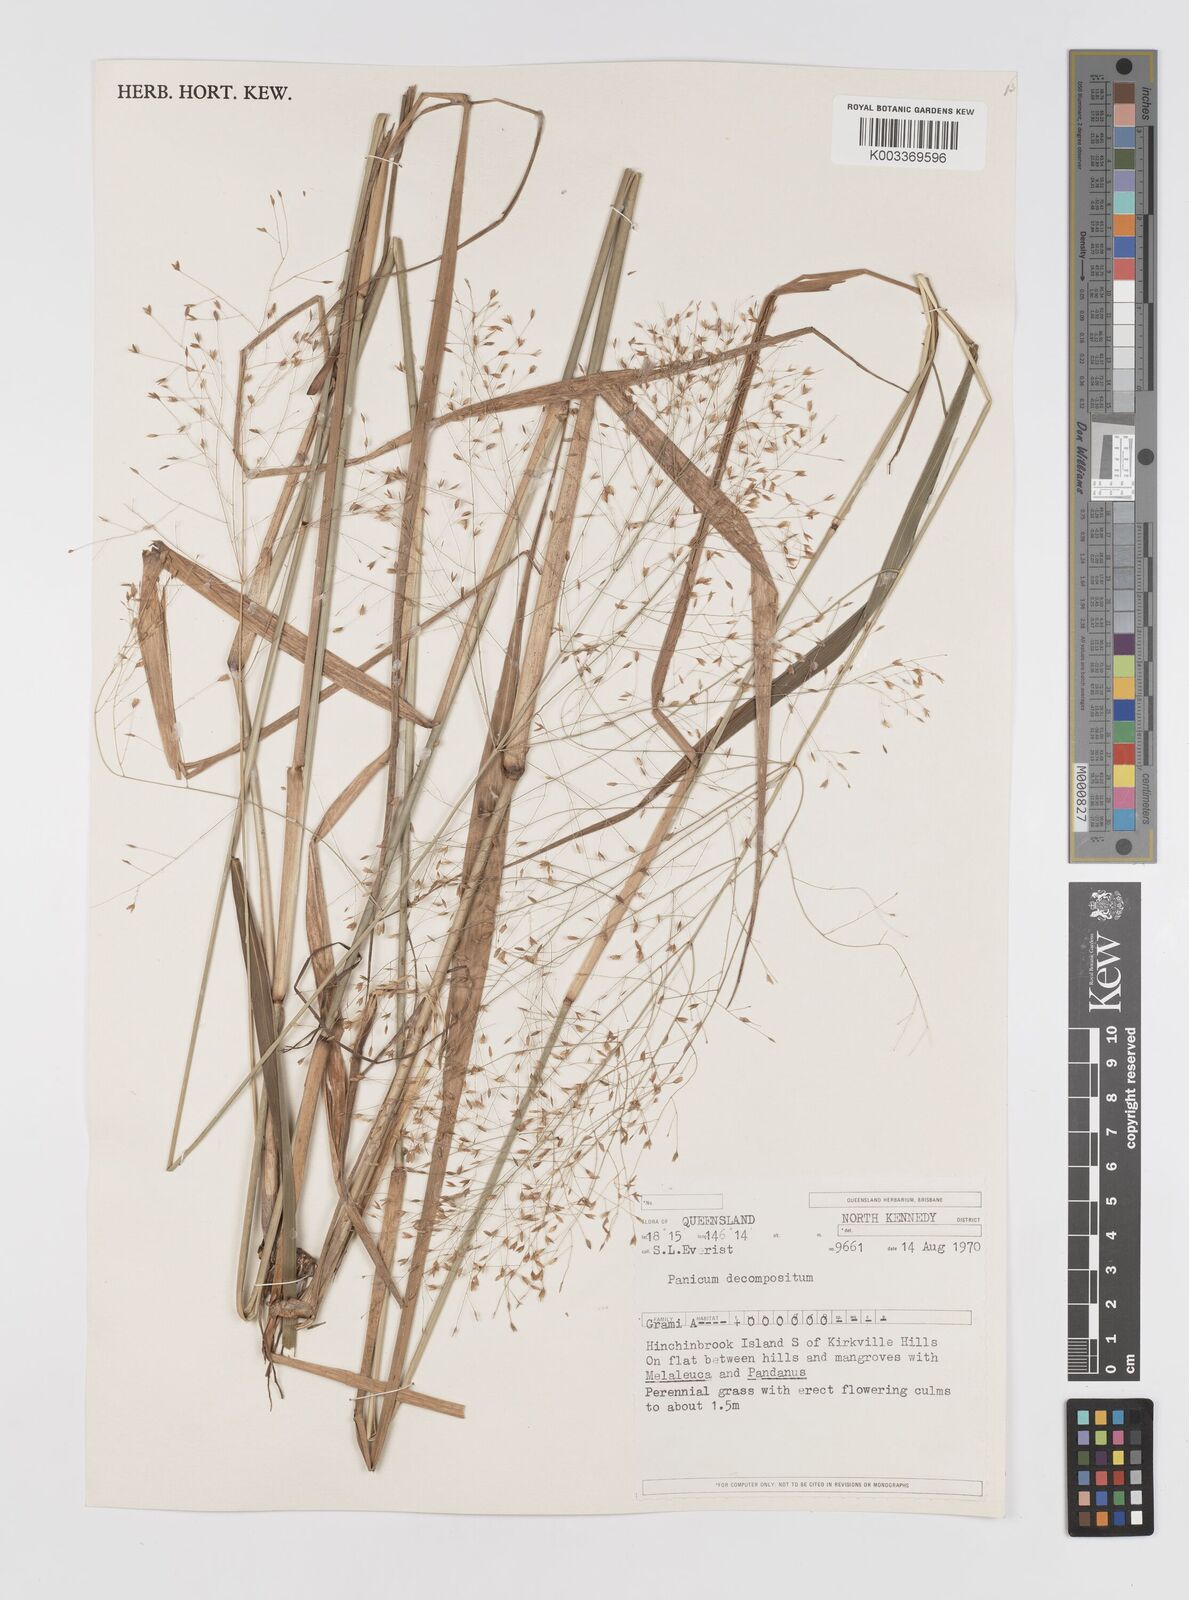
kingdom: Plantae
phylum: Tracheophyta
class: Liliopsida
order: Poales
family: Poaceae
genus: Panicum
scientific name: Panicum decompositum
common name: Australian millet
